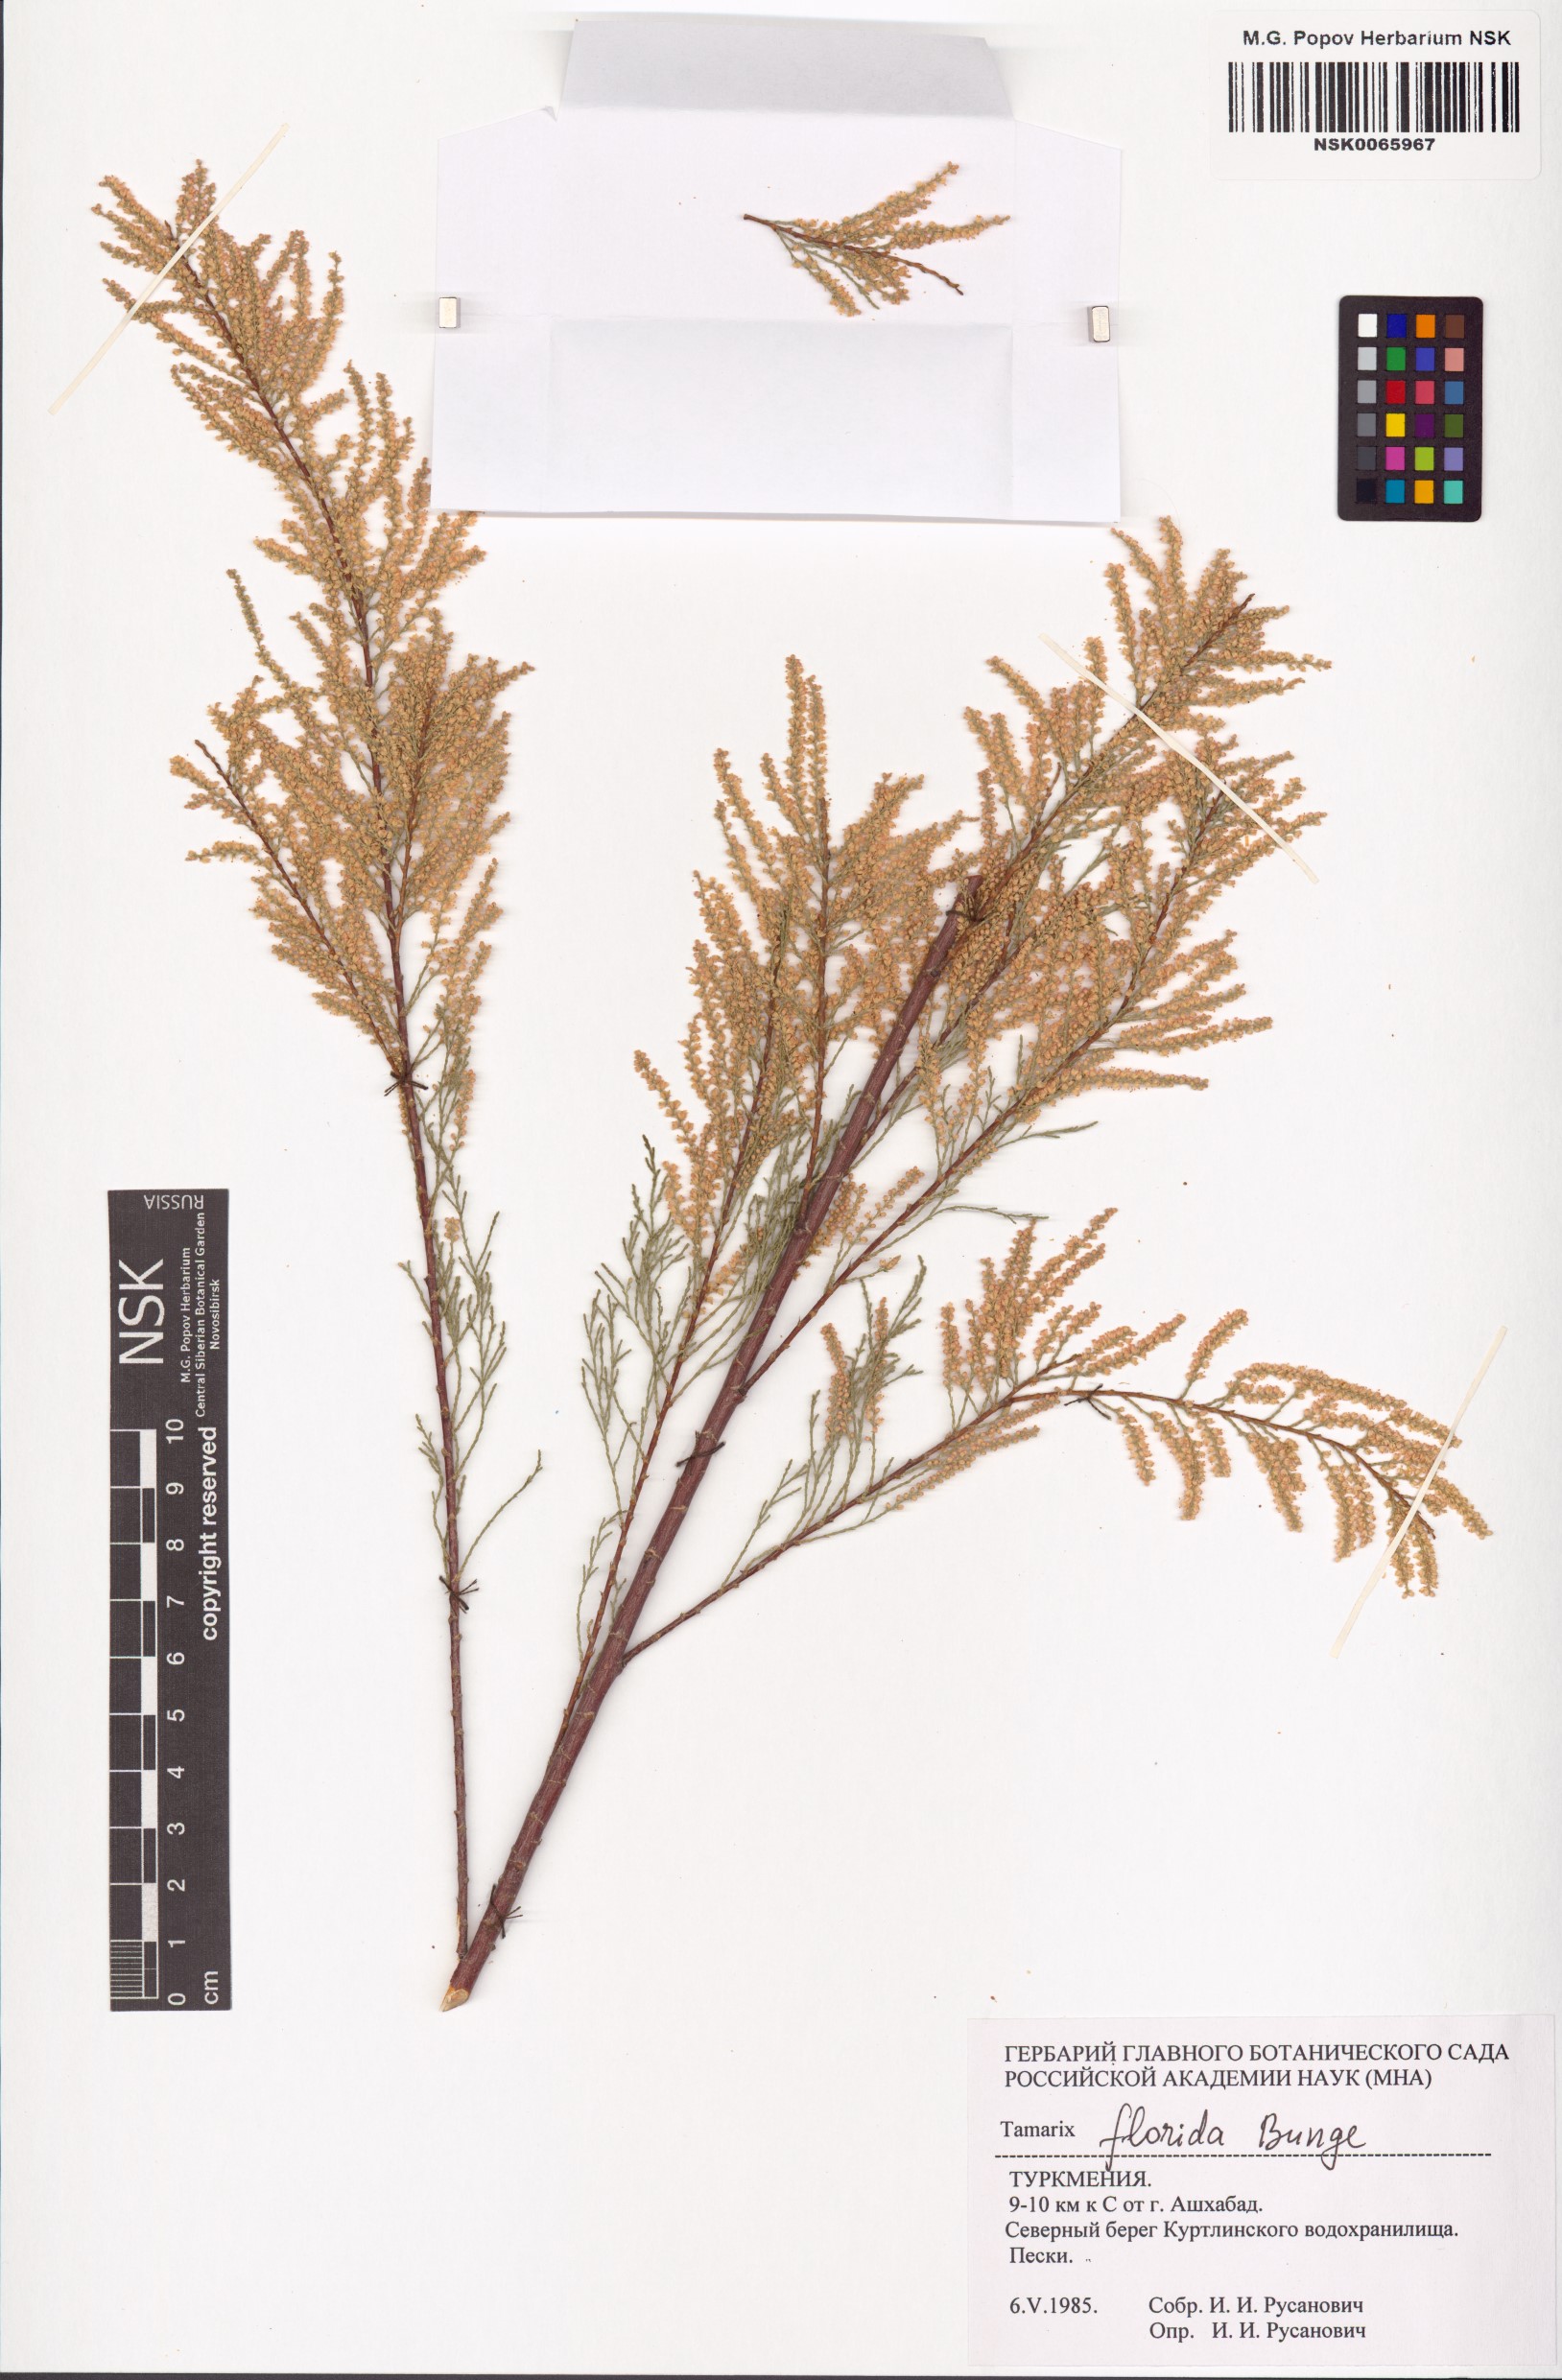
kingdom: Plantae
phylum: Tracheophyta
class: Magnoliopsida
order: Caryophyllales
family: Tamaricaceae
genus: Tamarix
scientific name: Tamarix florida
